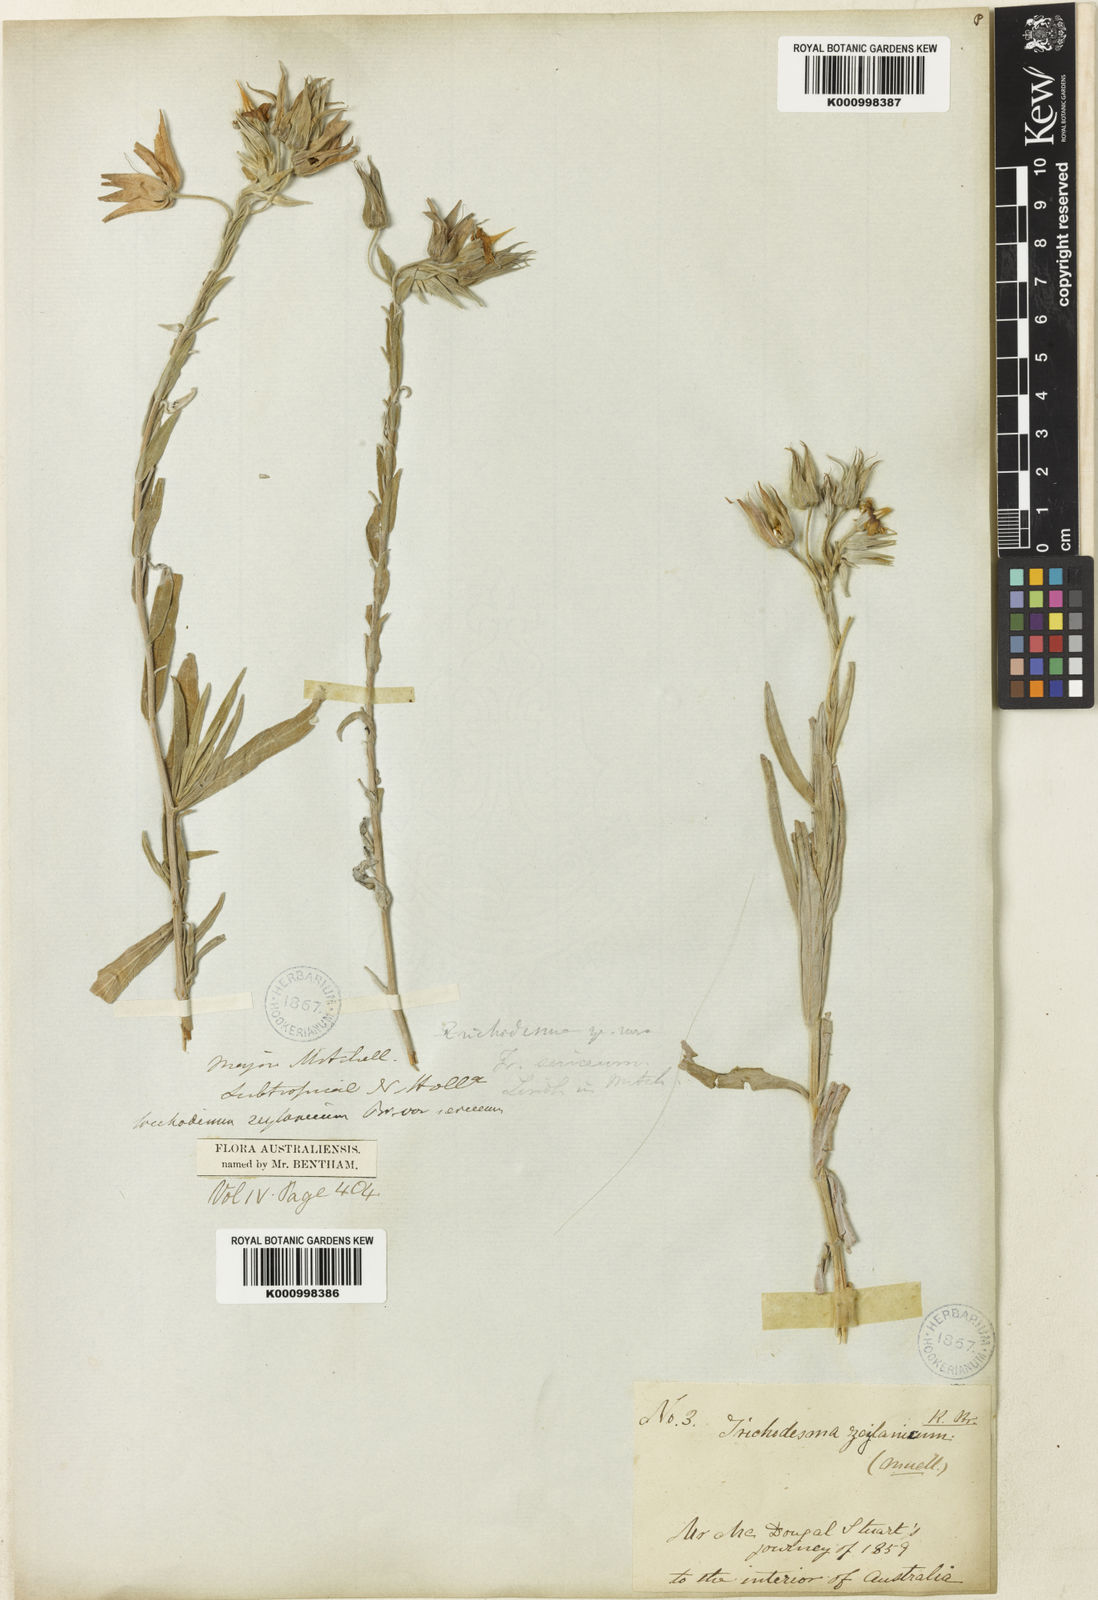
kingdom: Plantae
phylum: Tracheophyta
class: Magnoliopsida
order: Boraginales
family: Boraginaceae
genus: Trichodesma
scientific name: Trichodesma zeylanicum
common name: Camelbush
